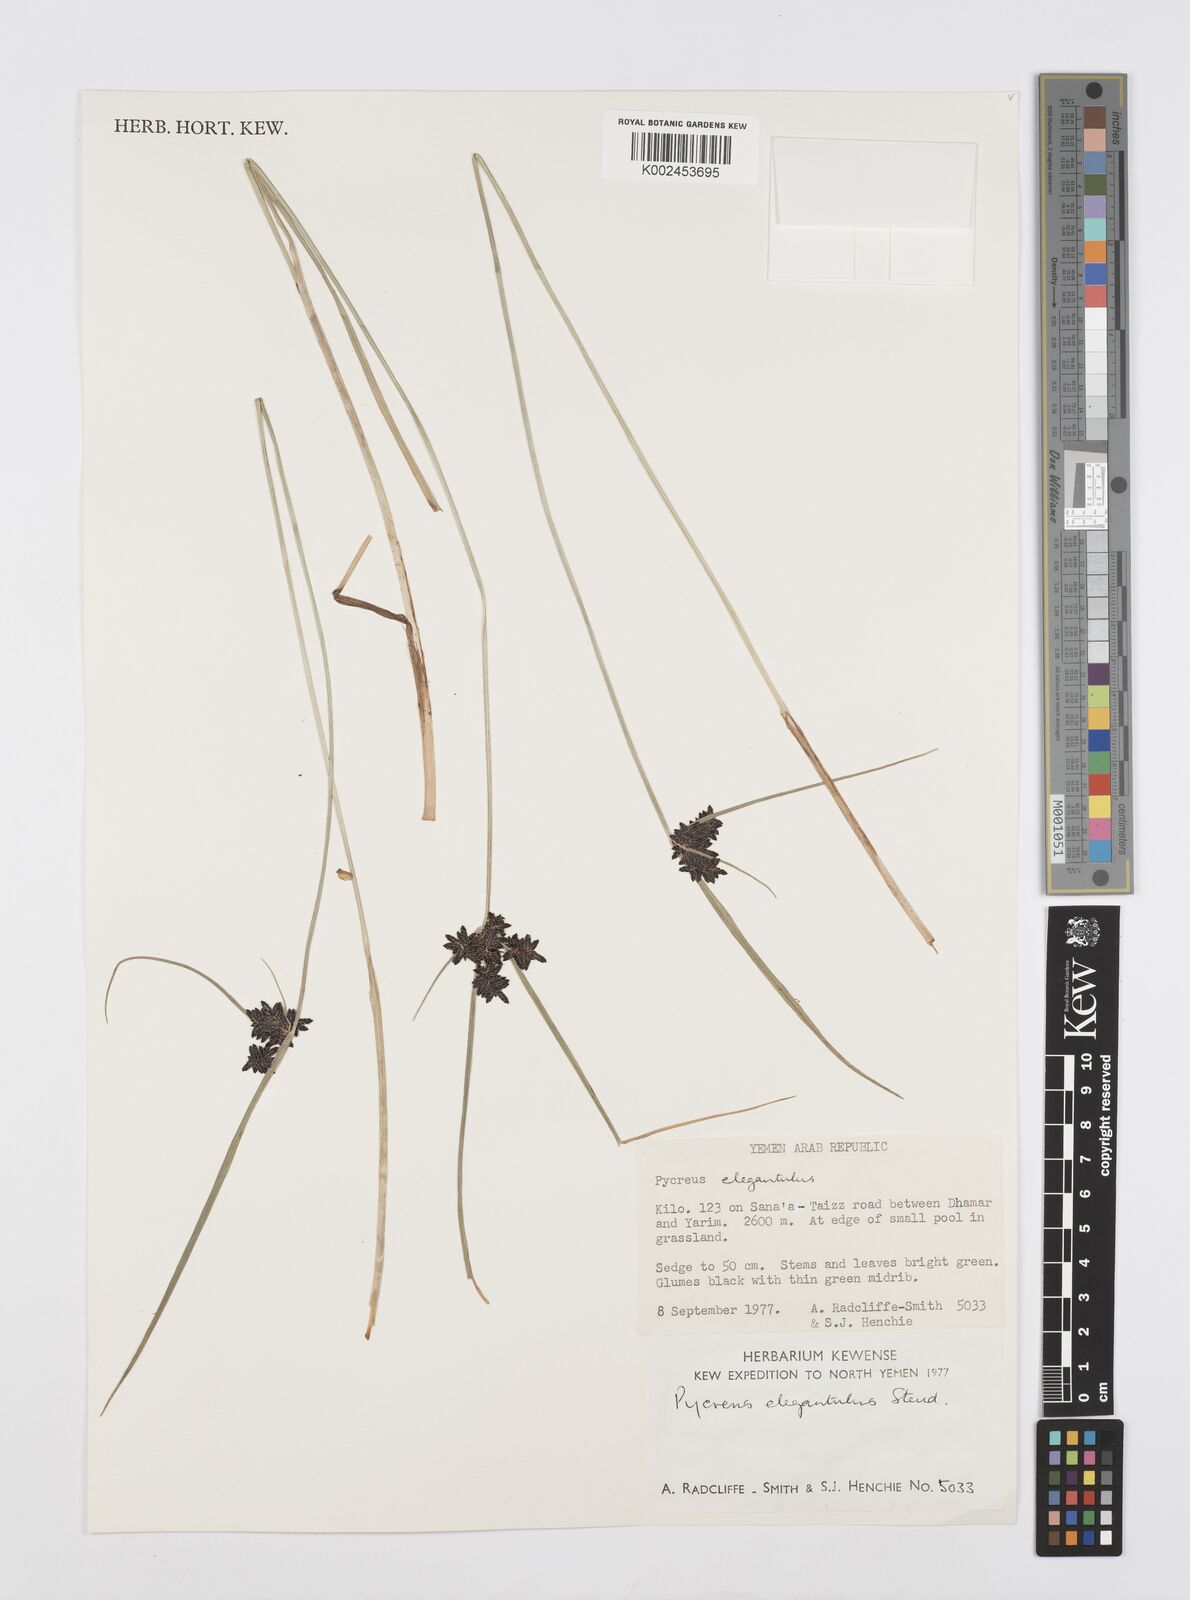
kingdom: Plantae
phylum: Tracheophyta
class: Liliopsida
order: Poales
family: Cyperaceae
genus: Cyperus
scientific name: Cyperus elegantulus
